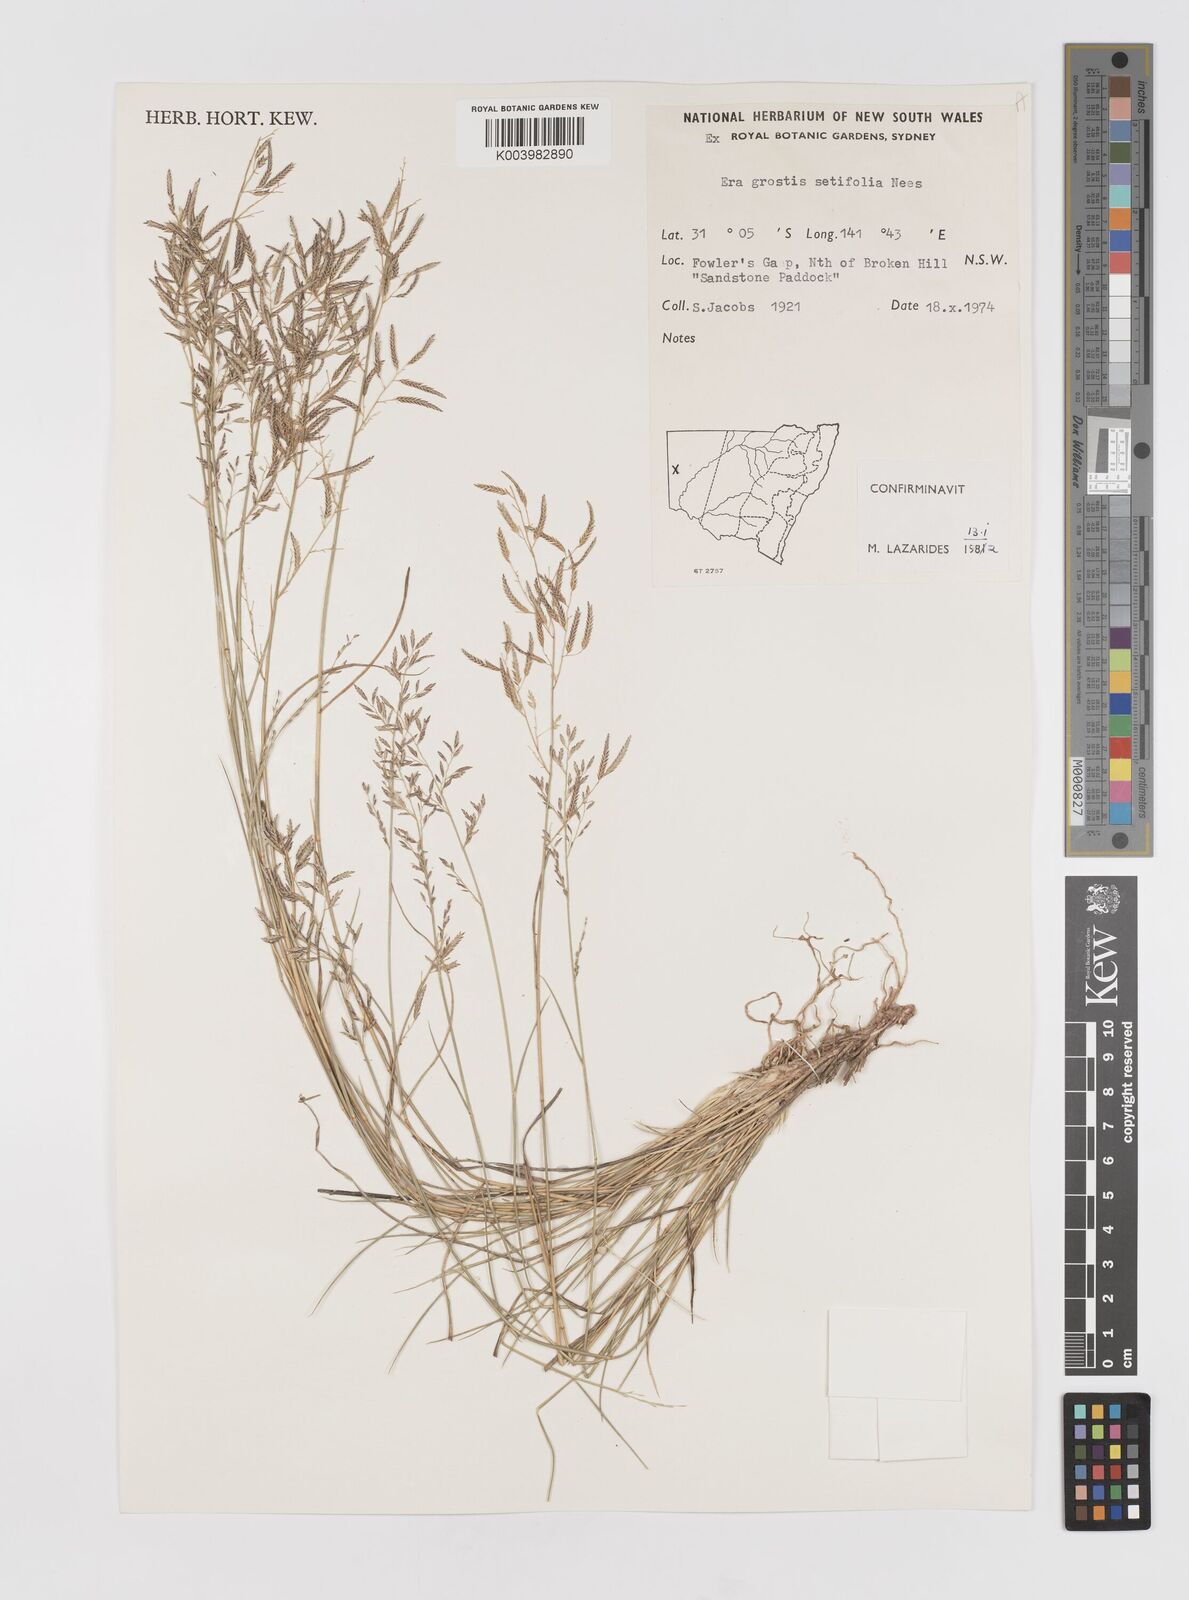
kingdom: Plantae
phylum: Tracheophyta
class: Liliopsida
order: Poales
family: Poaceae
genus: Eragrostis
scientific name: Eragrostis setifolia
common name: Bristleleaf lovegrass
